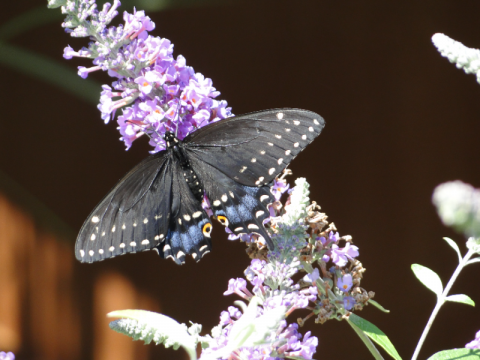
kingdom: Animalia
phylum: Arthropoda
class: Insecta
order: Lepidoptera
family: Papilionidae
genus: Papilio
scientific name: Papilio polyxenes
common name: Black Swallowtail
